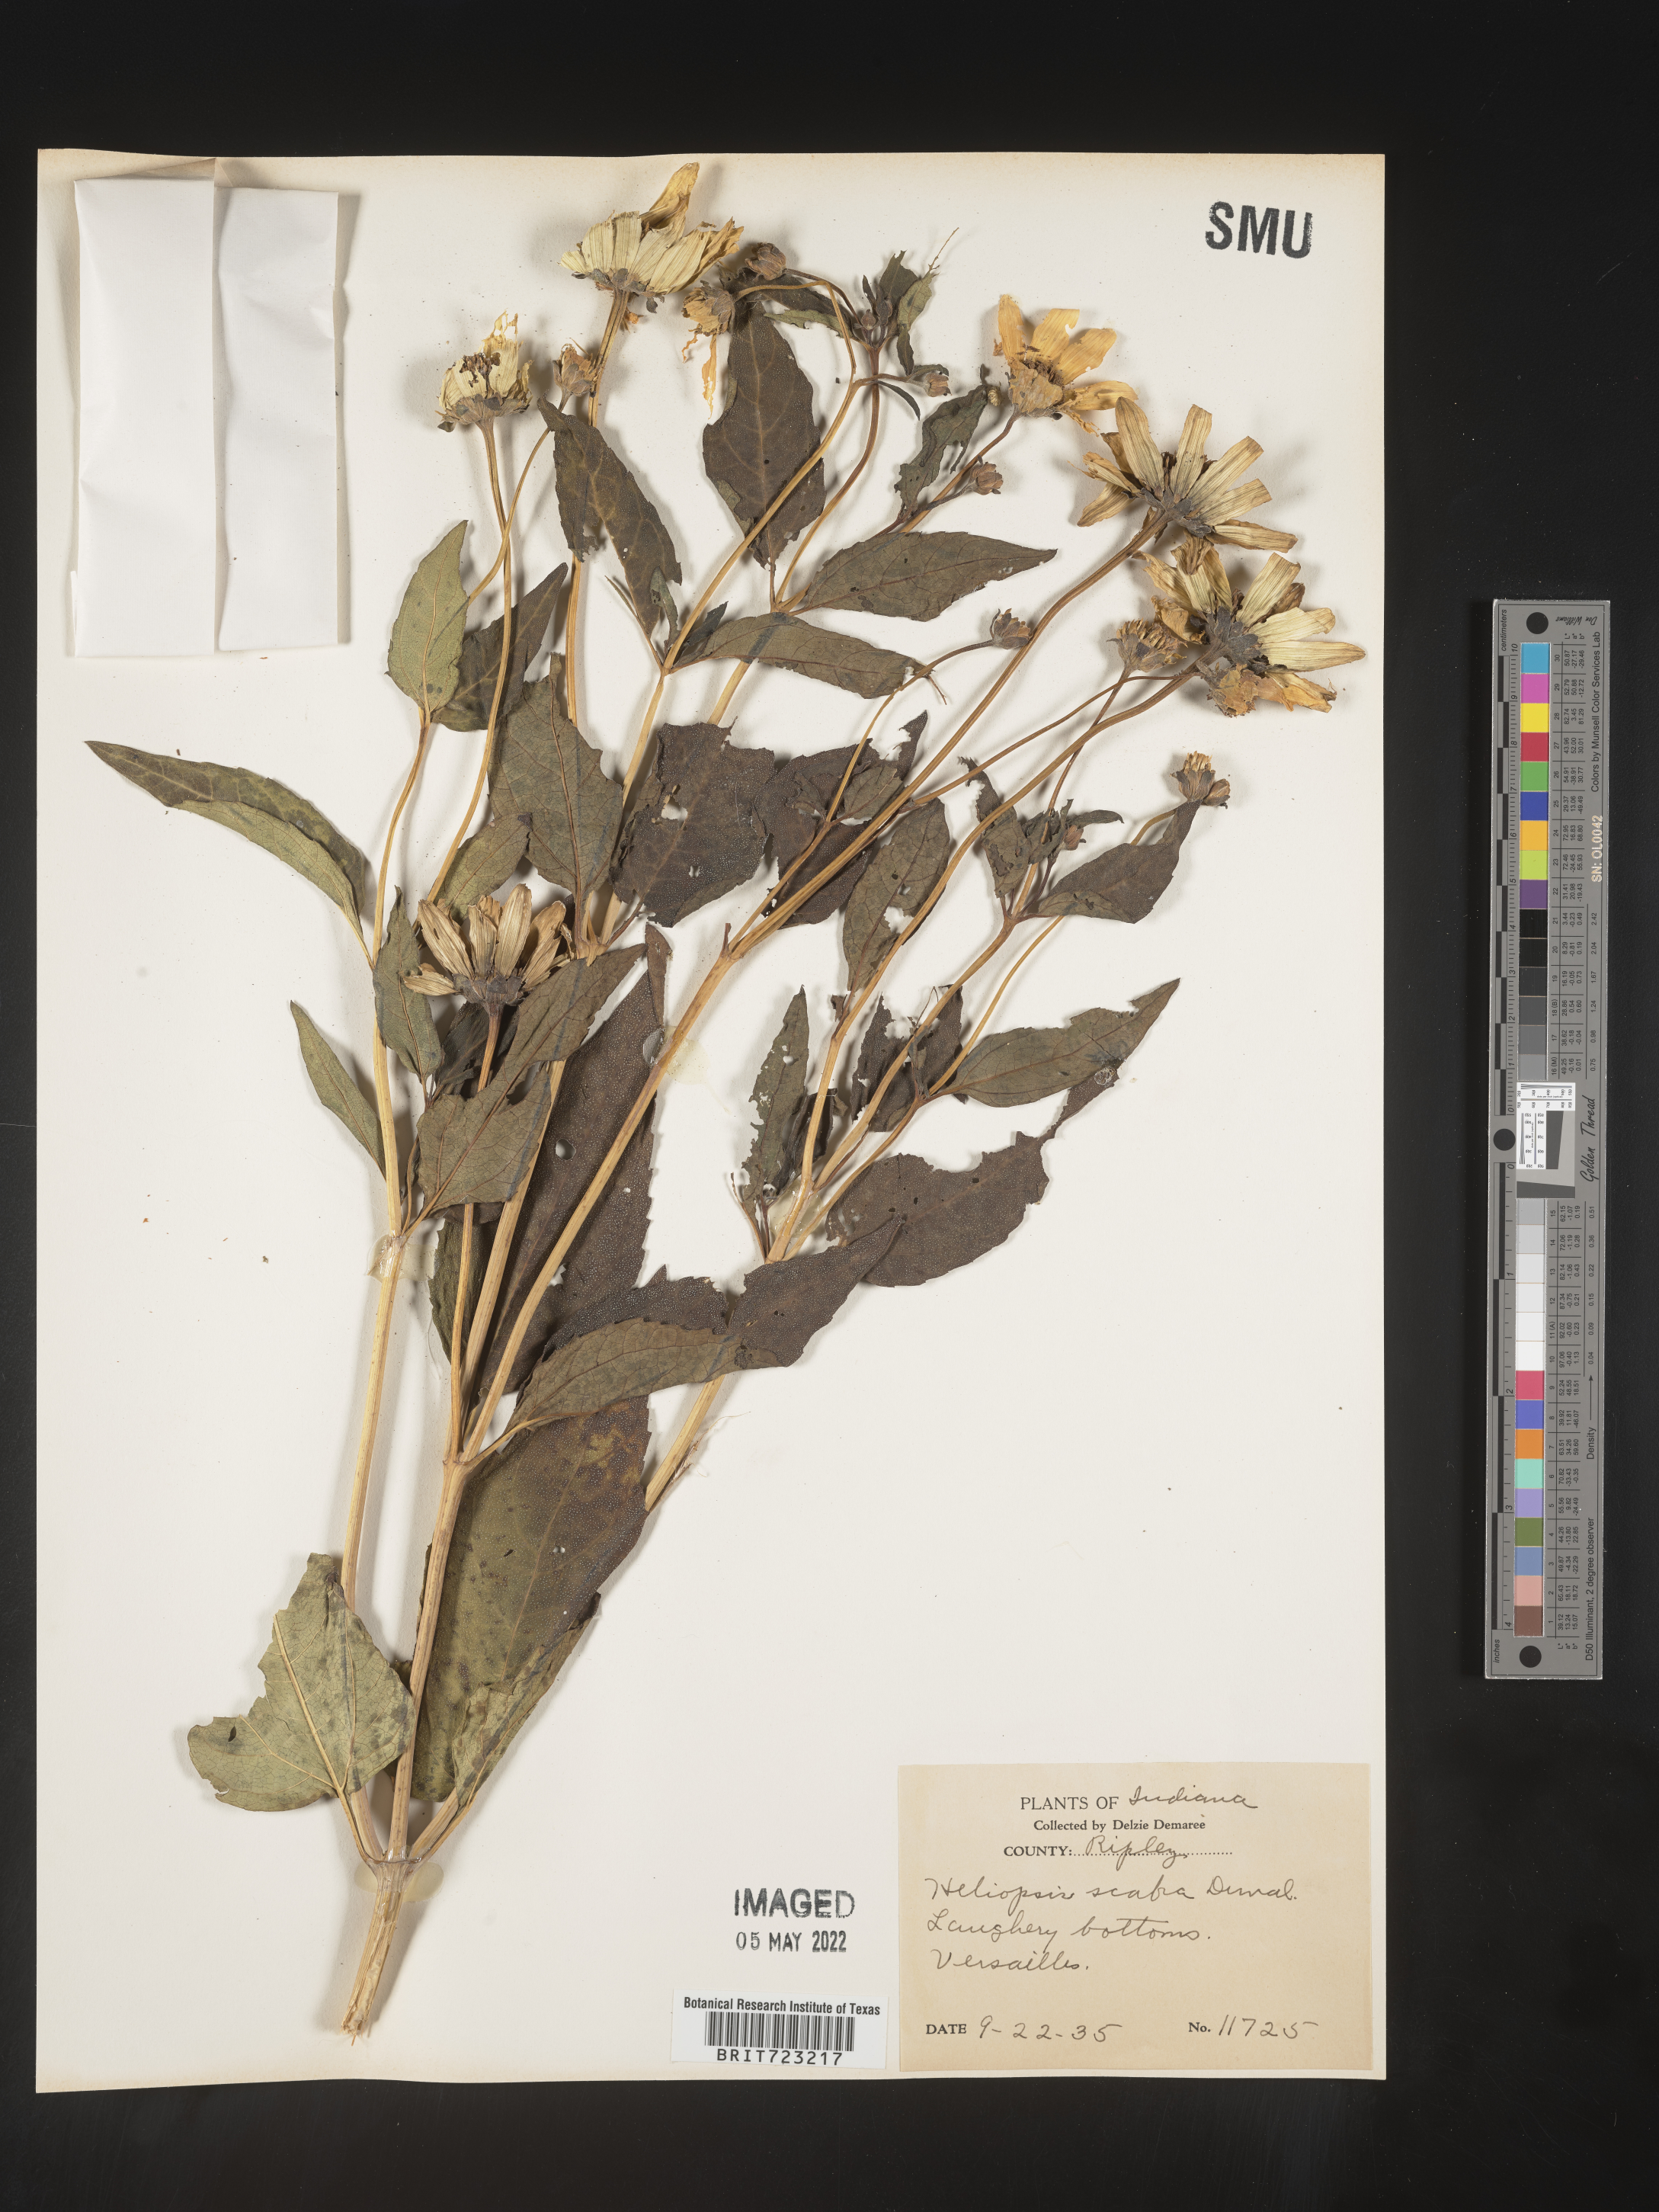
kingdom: Plantae
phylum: Tracheophyta
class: Magnoliopsida
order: Asterales
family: Asteraceae
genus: Heliopsis
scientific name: Heliopsis helianthoides
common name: False sunflower
